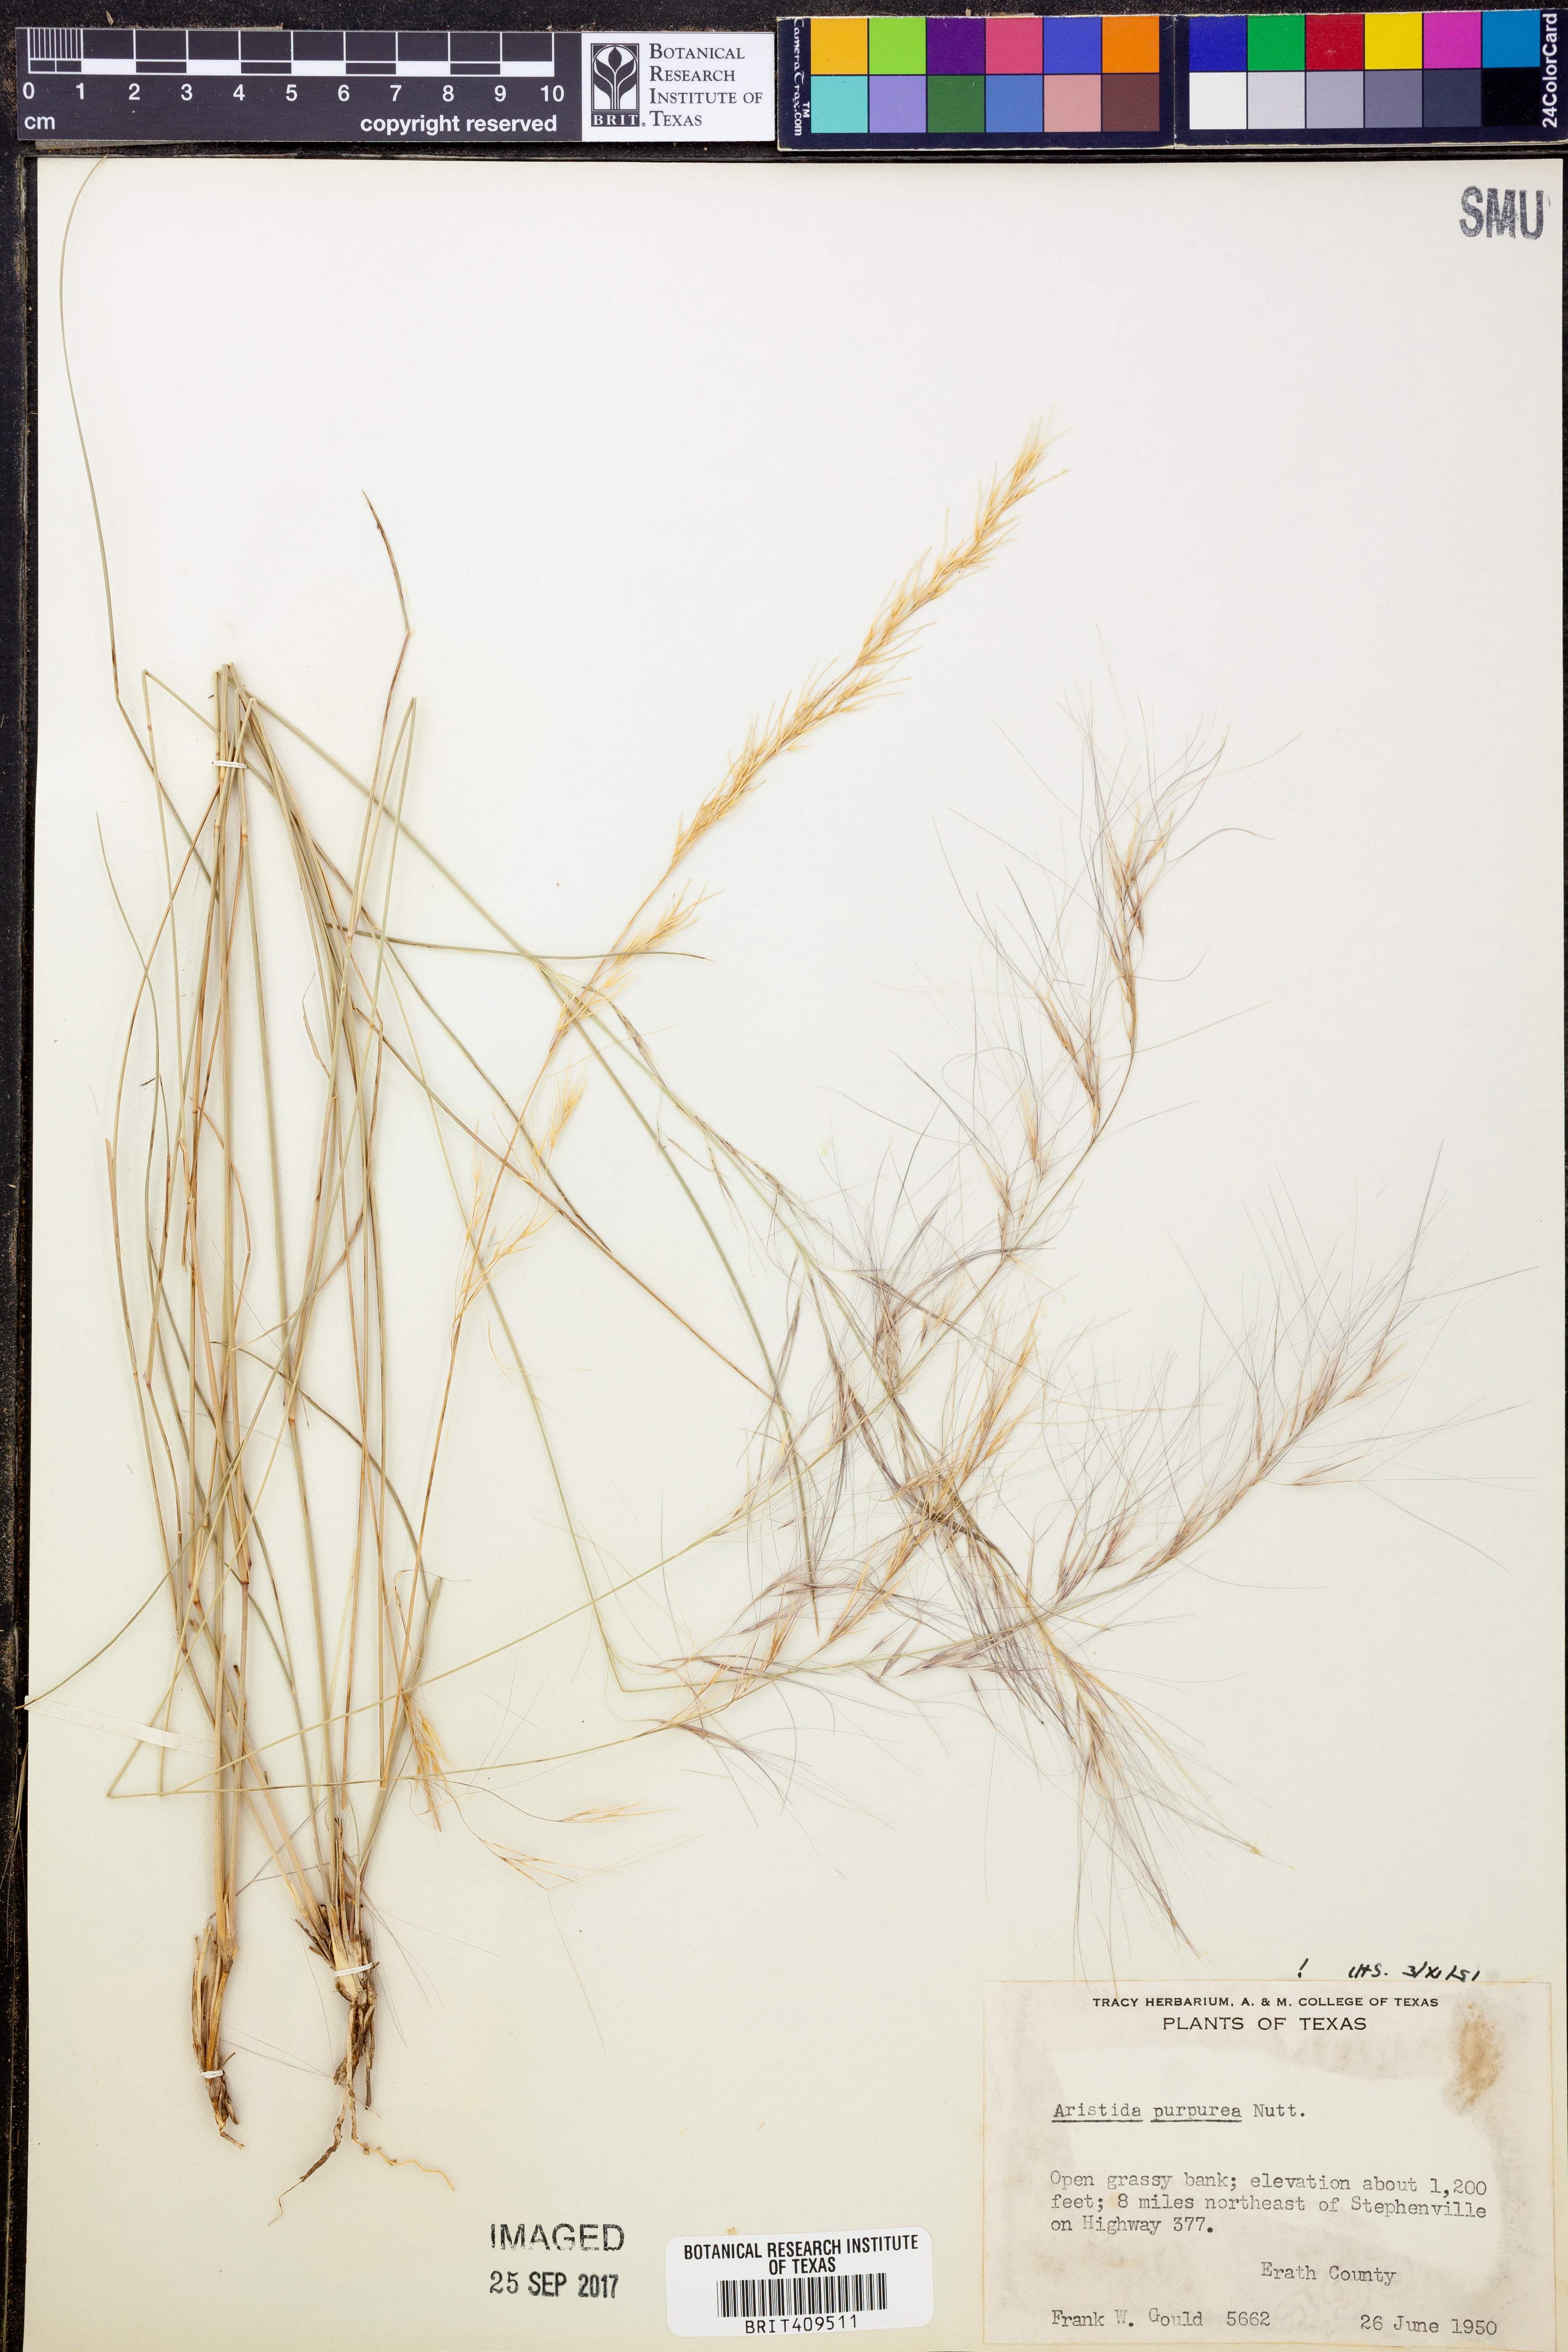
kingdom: Plantae
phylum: Tracheophyta
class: Liliopsida
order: Poales
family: Poaceae
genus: Aristida
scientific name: Aristida purpurea
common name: Purple threeawn
